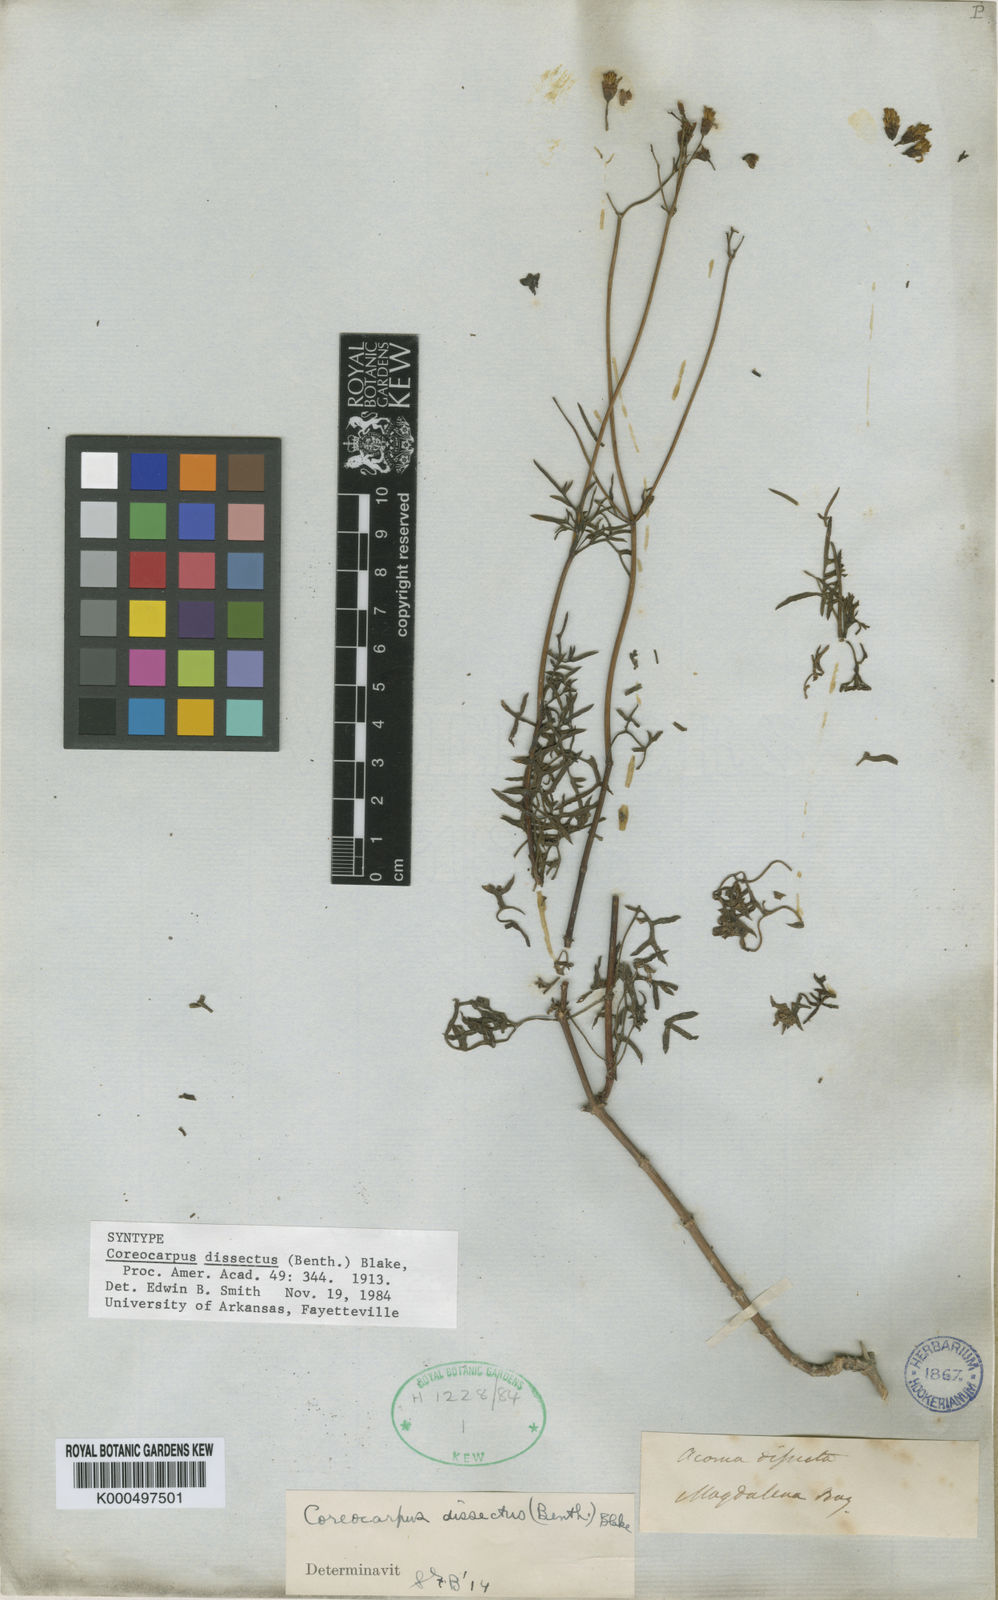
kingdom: Plantae
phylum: Tracheophyta
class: Magnoliopsida
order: Asterales
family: Asteraceae
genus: Coreocarpus
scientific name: Coreocarpus dissectus
